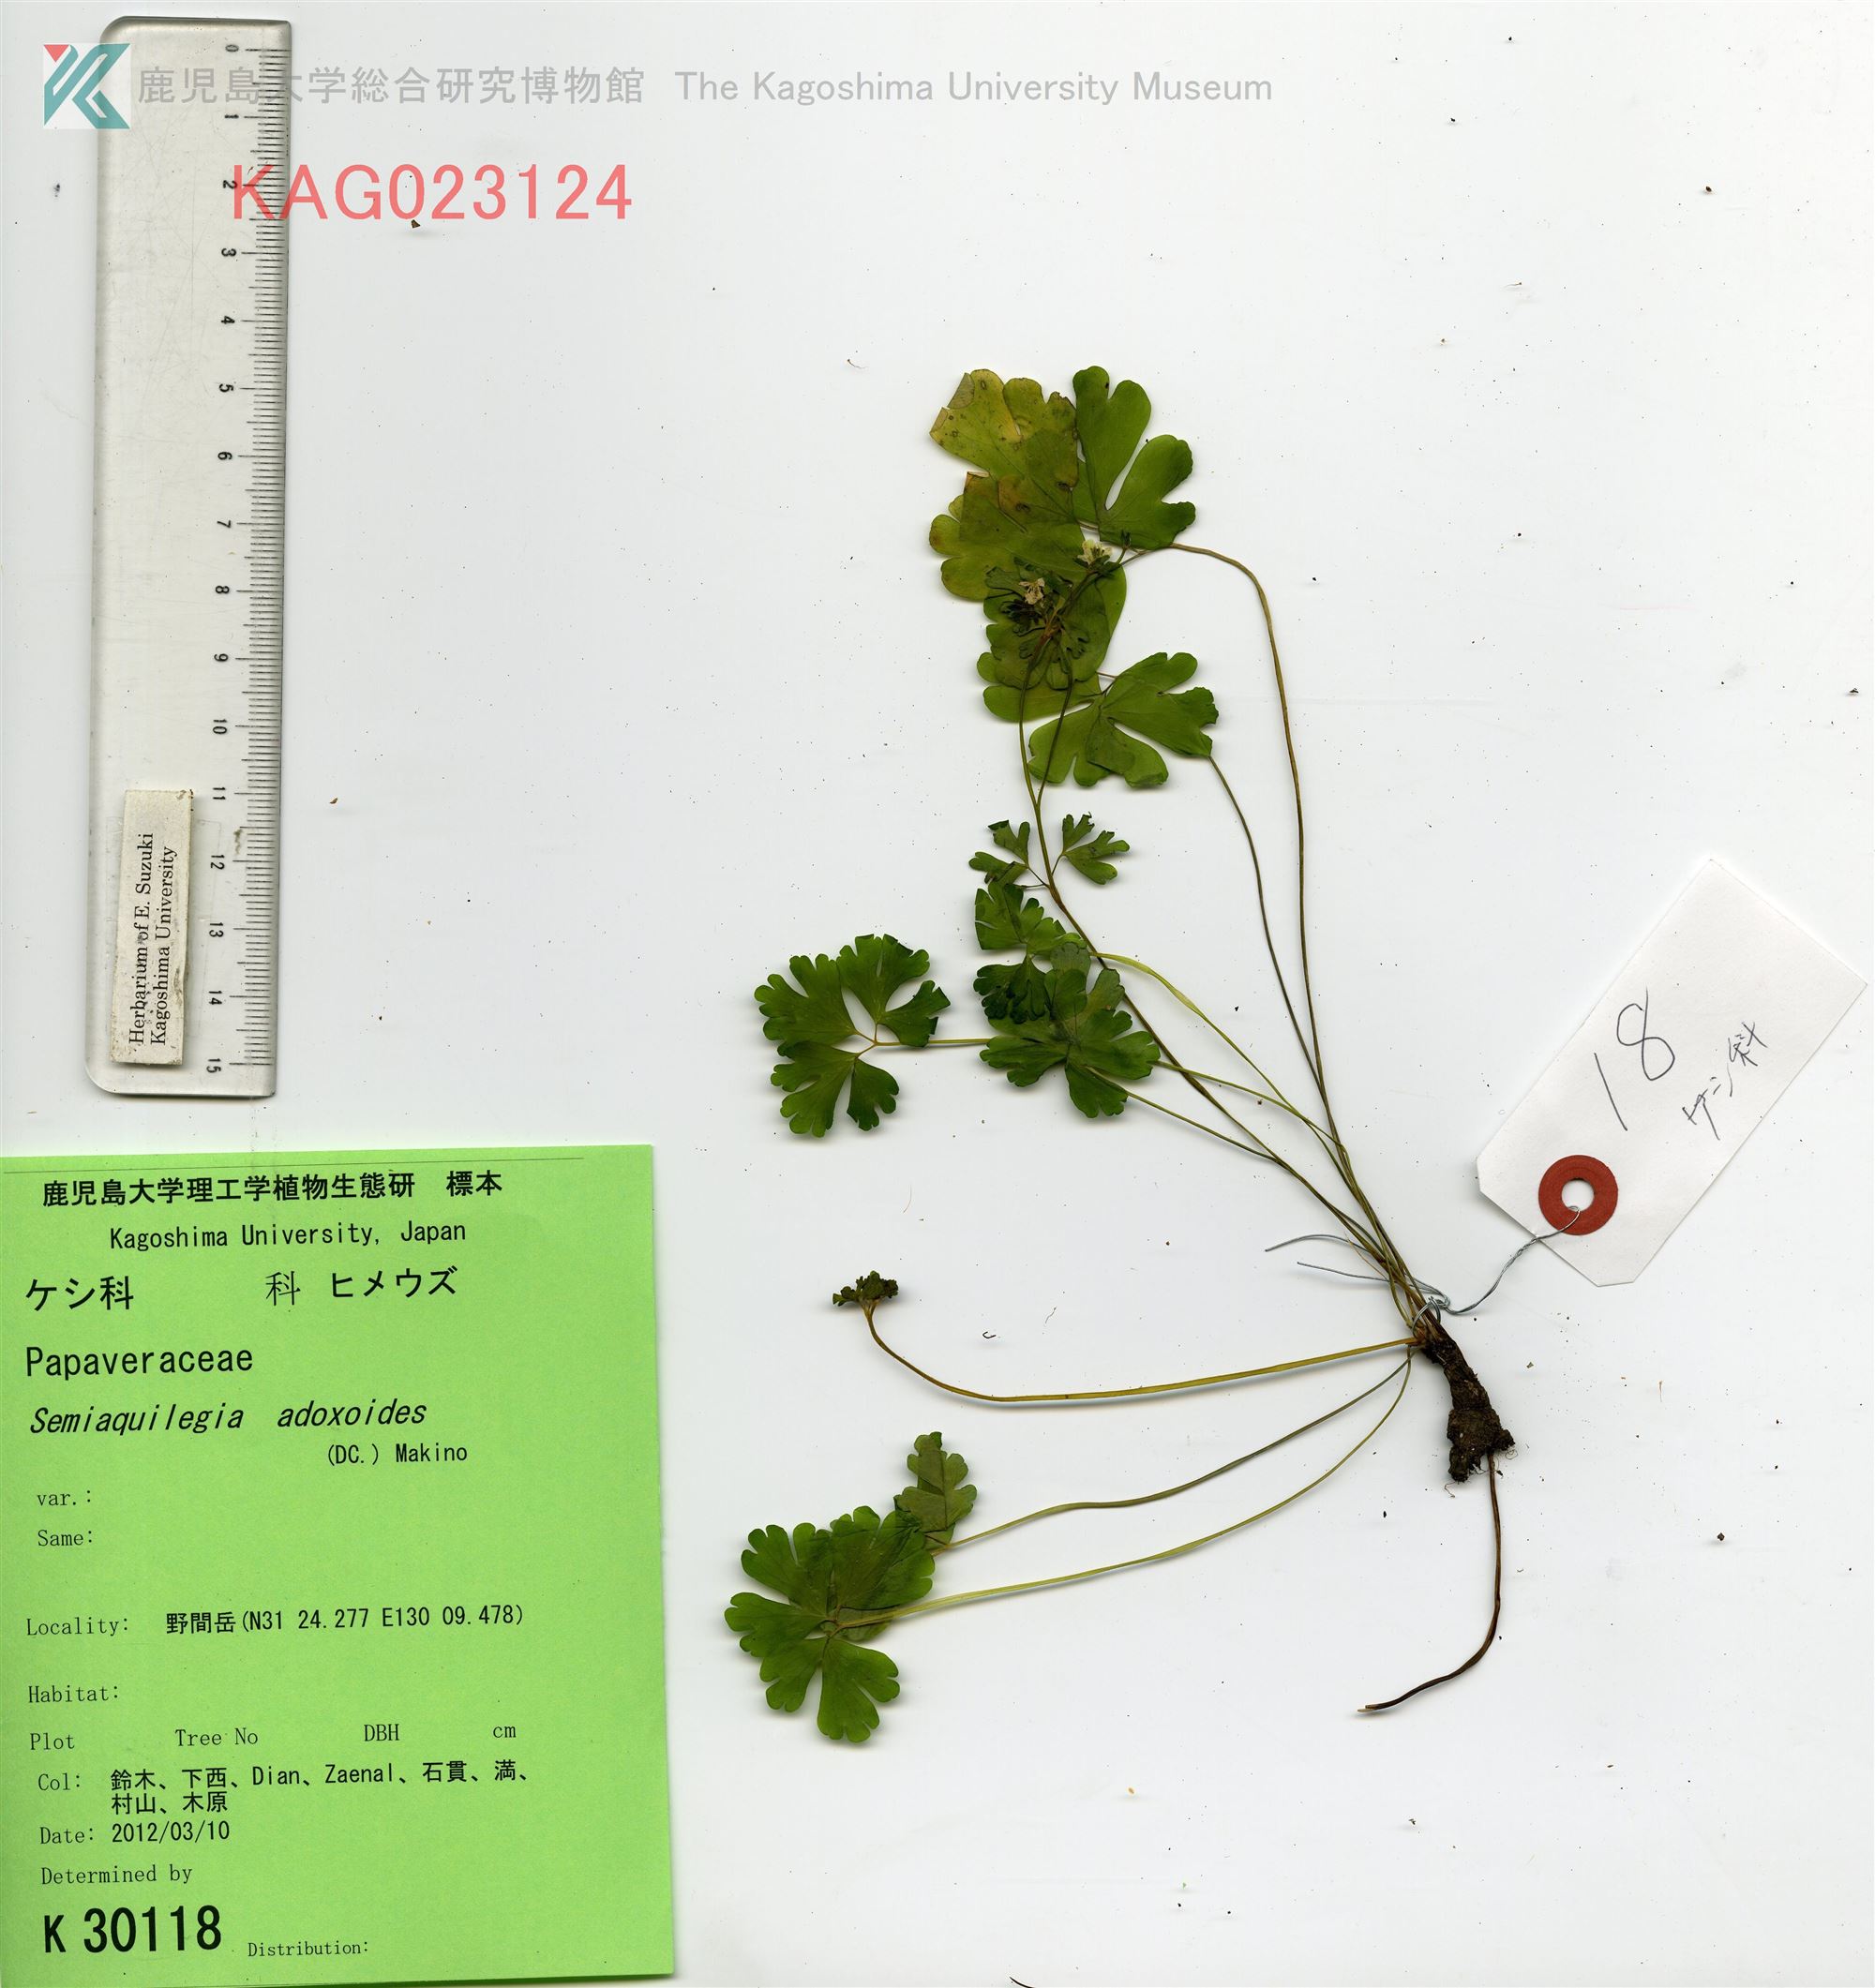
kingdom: Plantae
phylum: Tracheophyta
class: Magnoliopsida
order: Ranunculales
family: Ranunculaceae
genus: Semiaquilegia
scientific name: Semiaquilegia adoxoides
